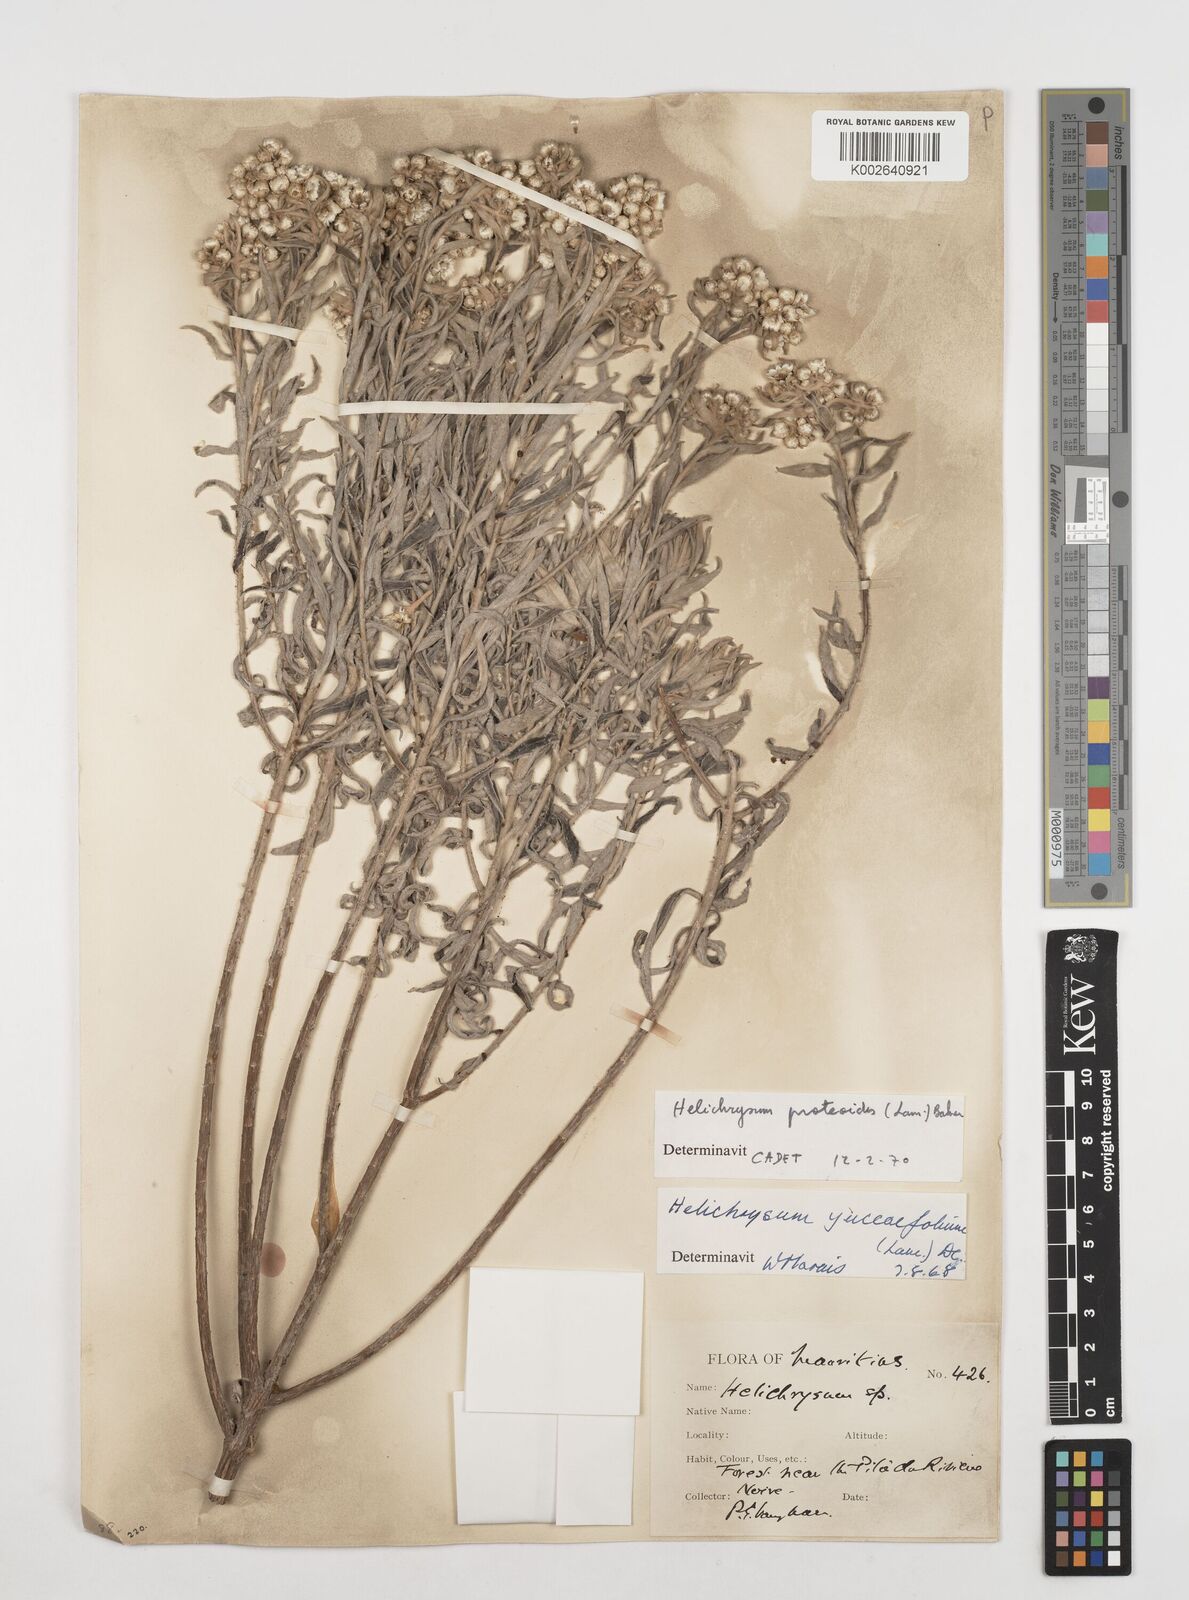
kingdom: Plantae
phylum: Tracheophyta
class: Magnoliopsida
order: Asterales
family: Asteraceae
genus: Helichrysum
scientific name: Helichrysum proteoides
